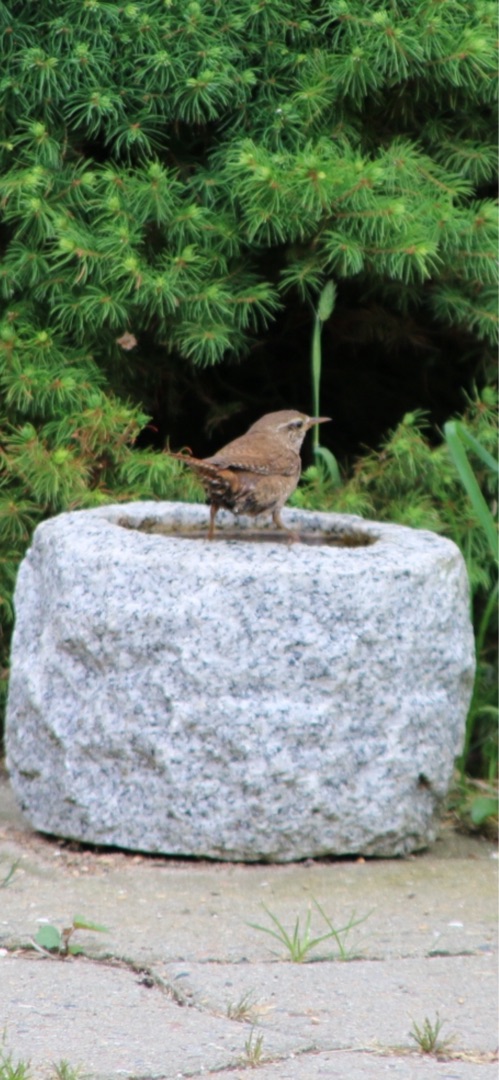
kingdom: Animalia
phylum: Chordata
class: Aves
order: Passeriformes
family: Troglodytidae
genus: Troglodytes
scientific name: Troglodytes troglodytes
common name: Gærdesmutte
